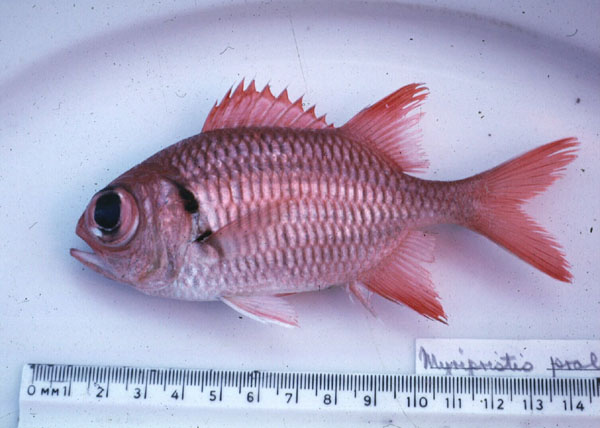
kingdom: Animalia
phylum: Chordata
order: Beryciformes
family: Holocentridae
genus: Myripristis
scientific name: Myripristis kuntee
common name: Epaulette soldierfish
